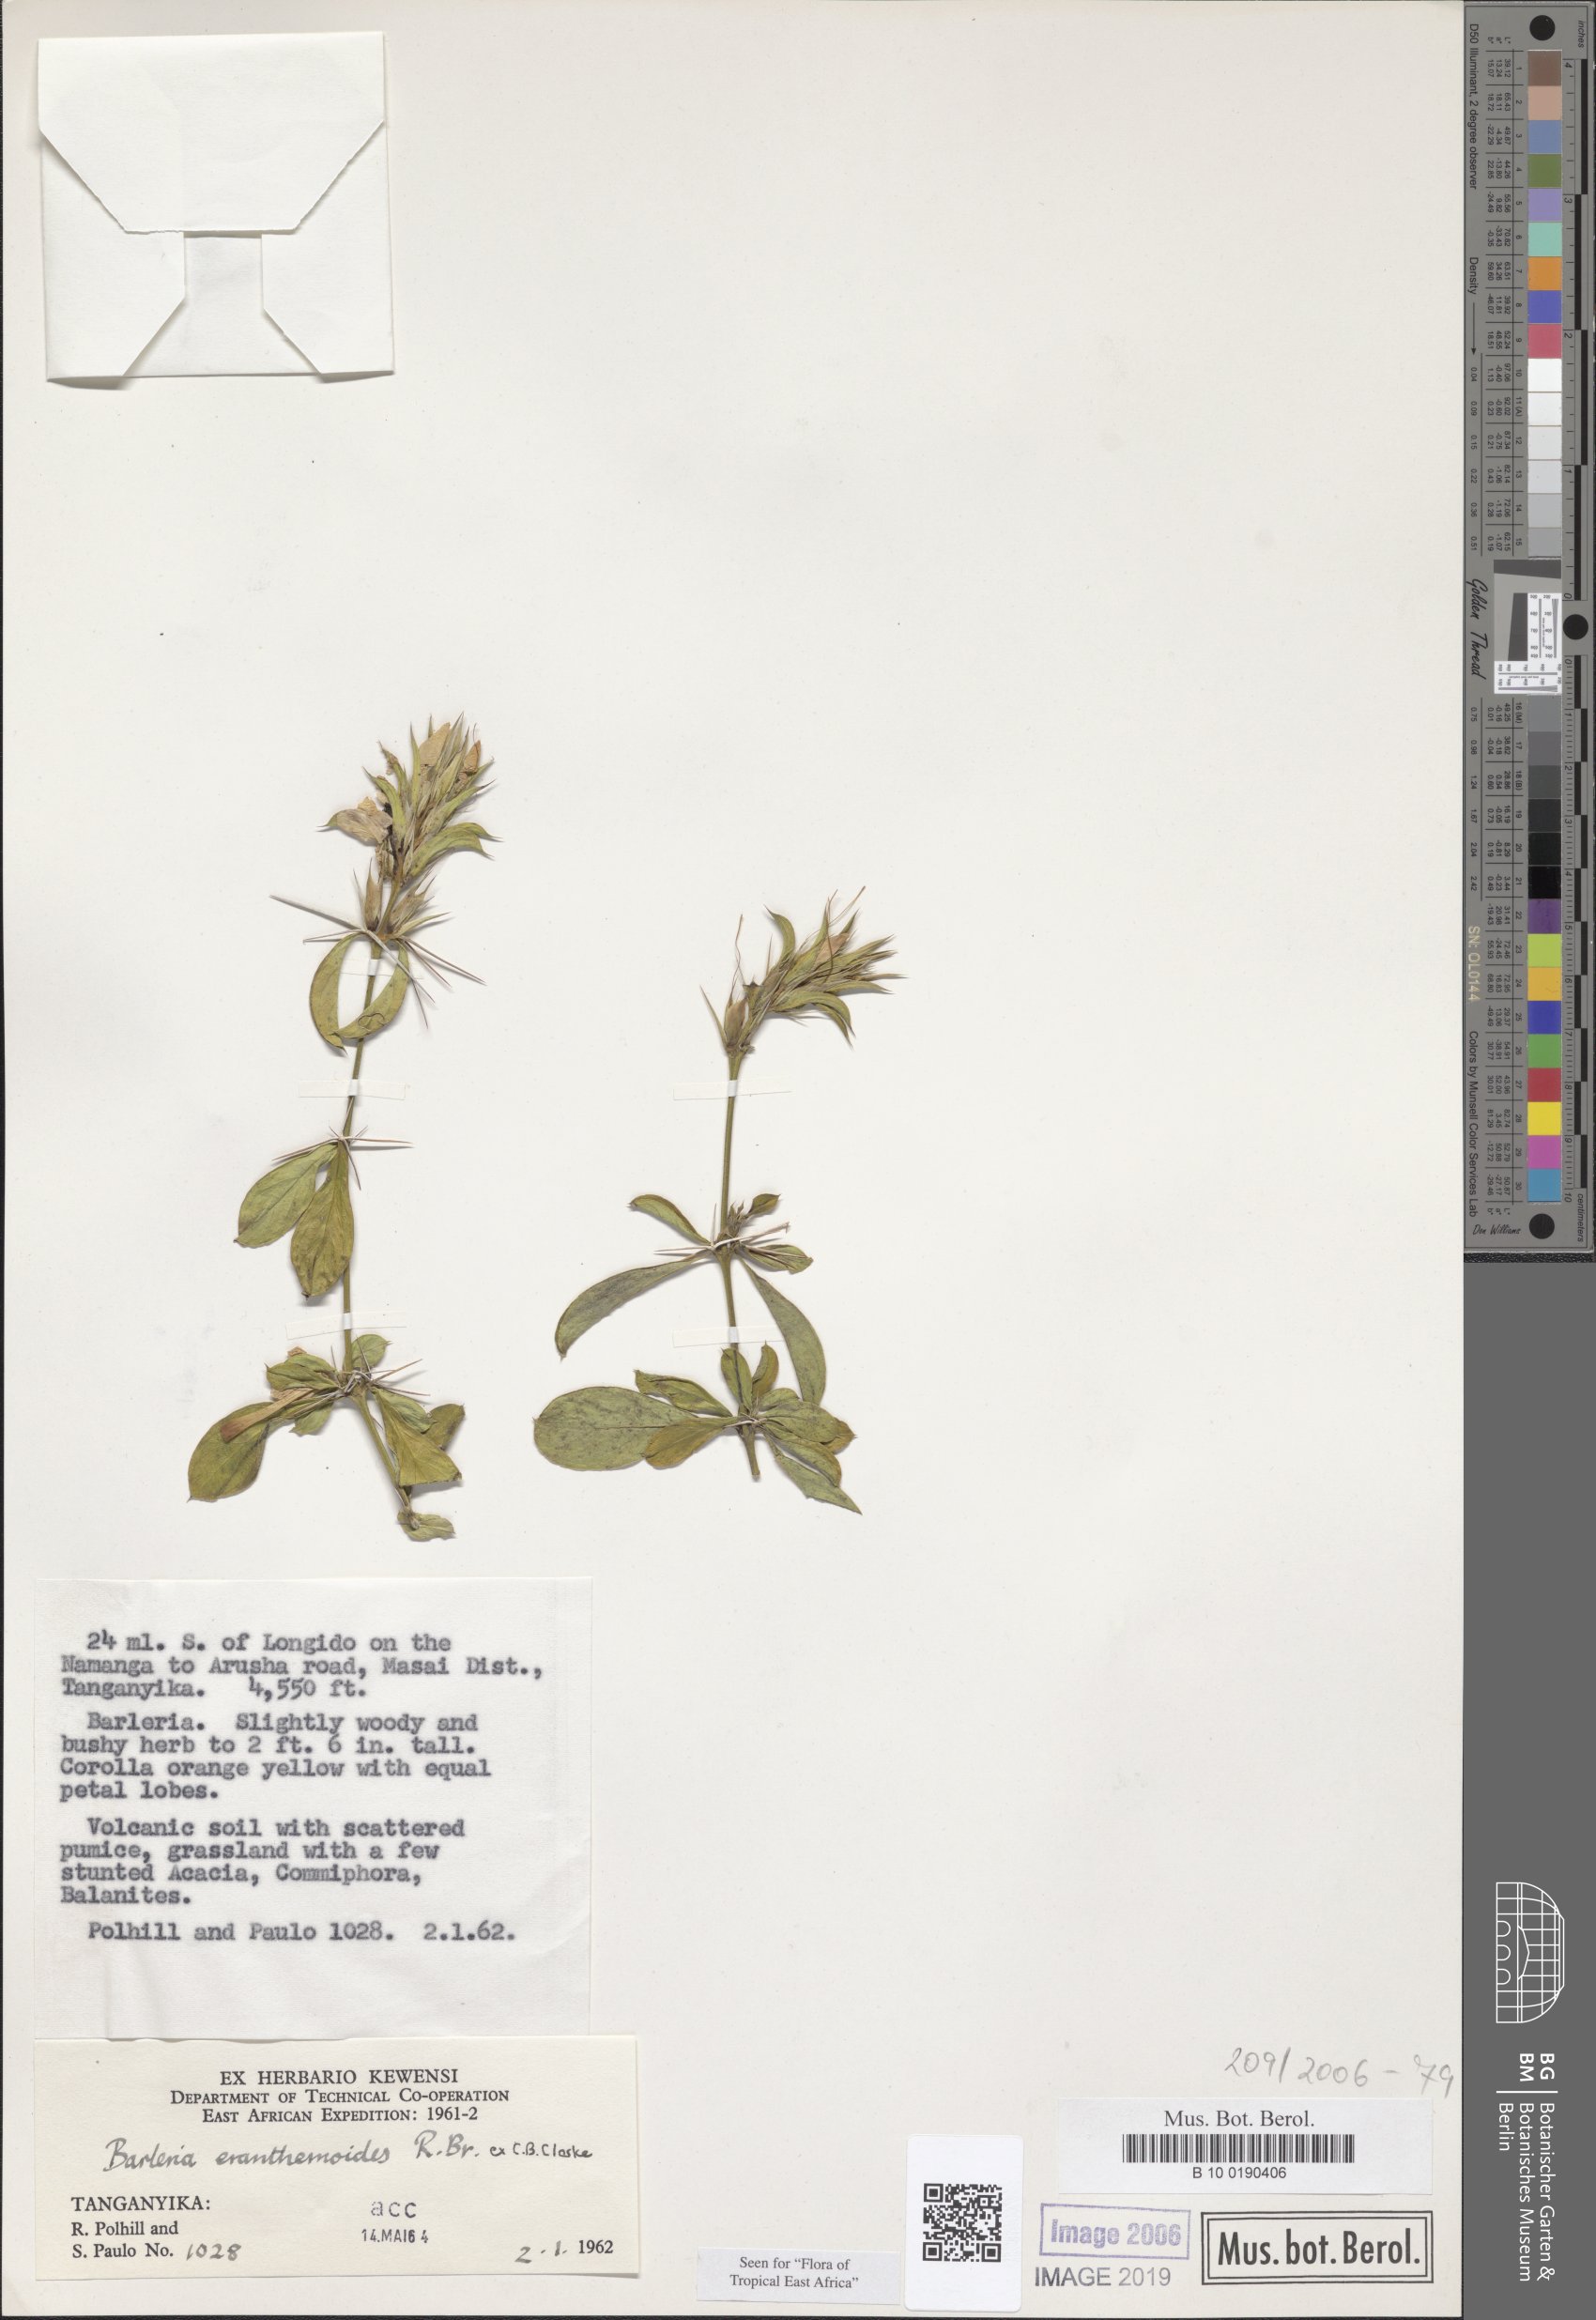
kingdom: Plantae
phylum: Tracheophyta
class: Magnoliopsida
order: Lamiales
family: Acanthaceae
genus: Barleria
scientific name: Barleria eranthemoides
